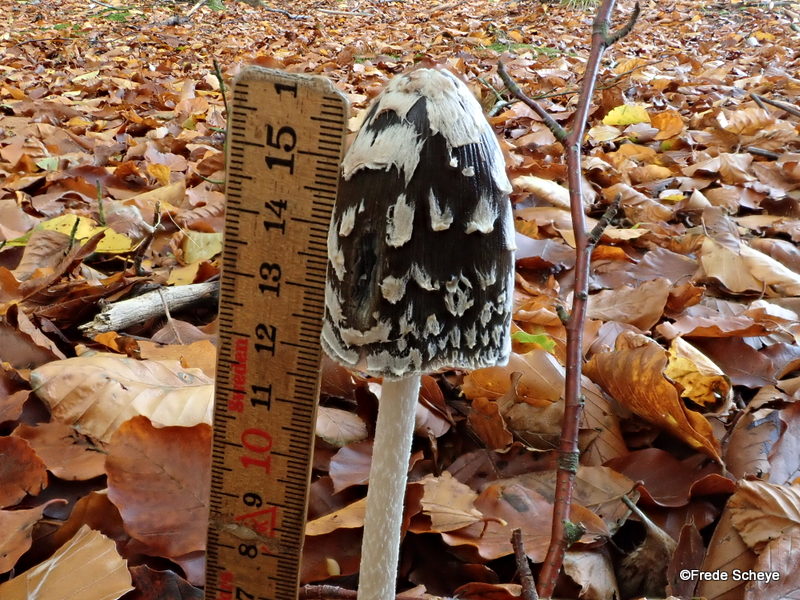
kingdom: Fungi
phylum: Basidiomycota
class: Agaricomycetes
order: Agaricales
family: Psathyrellaceae
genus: Coprinopsis
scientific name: Coprinopsis picacea
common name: skade-blækhat
